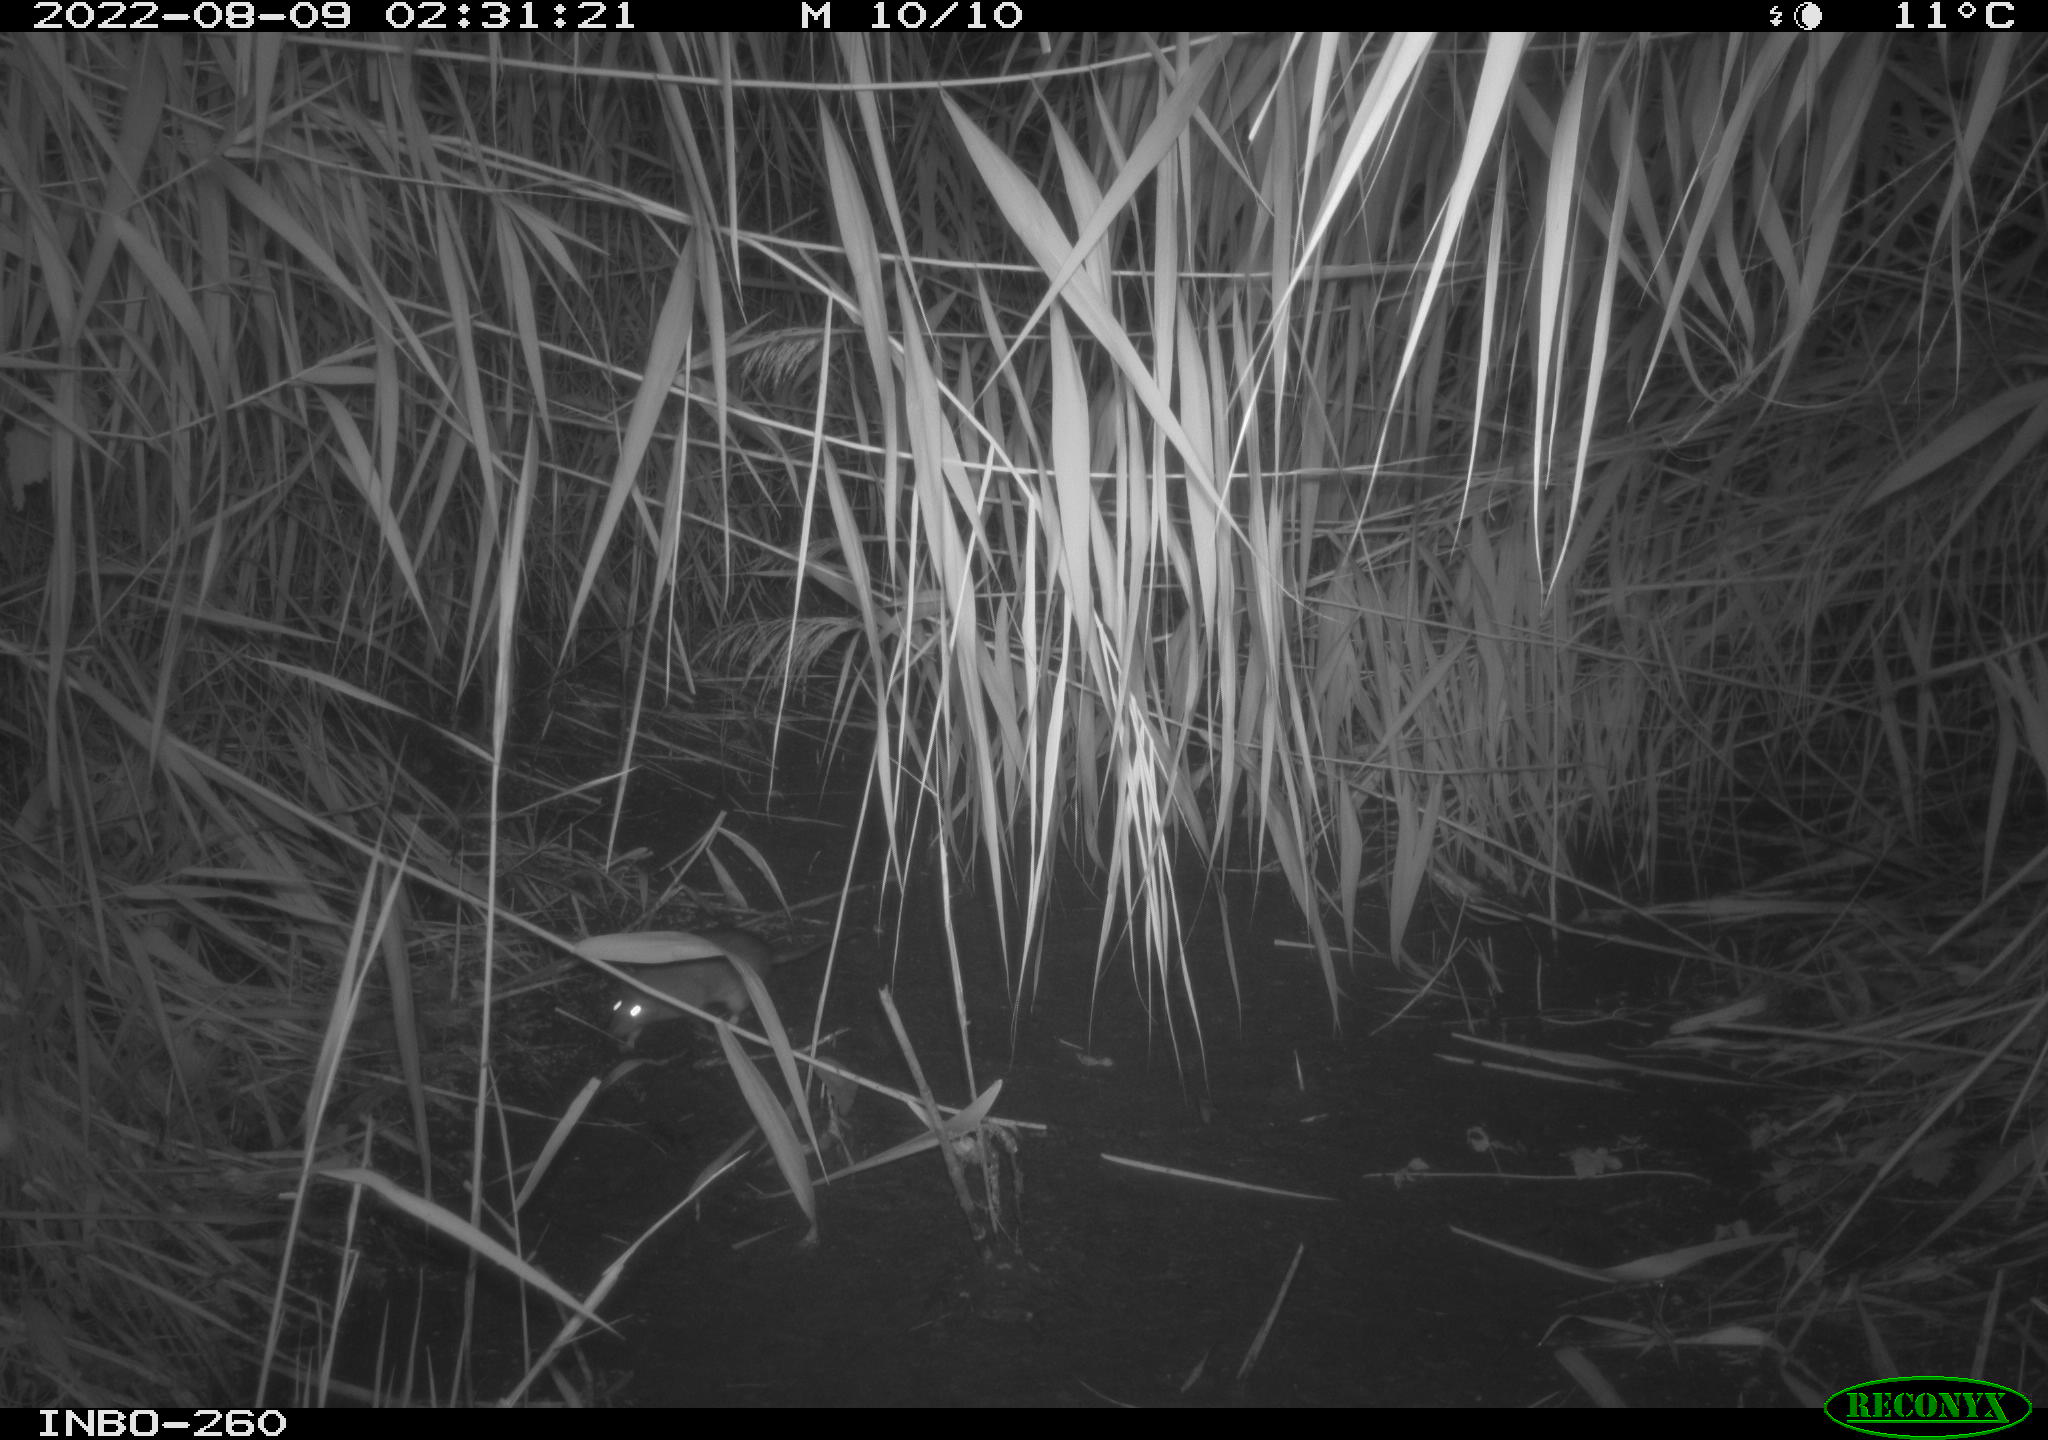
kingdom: Animalia
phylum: Chordata
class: Mammalia
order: Rodentia
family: Muridae
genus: Rattus
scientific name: Rattus norvegicus
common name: Brown rat
